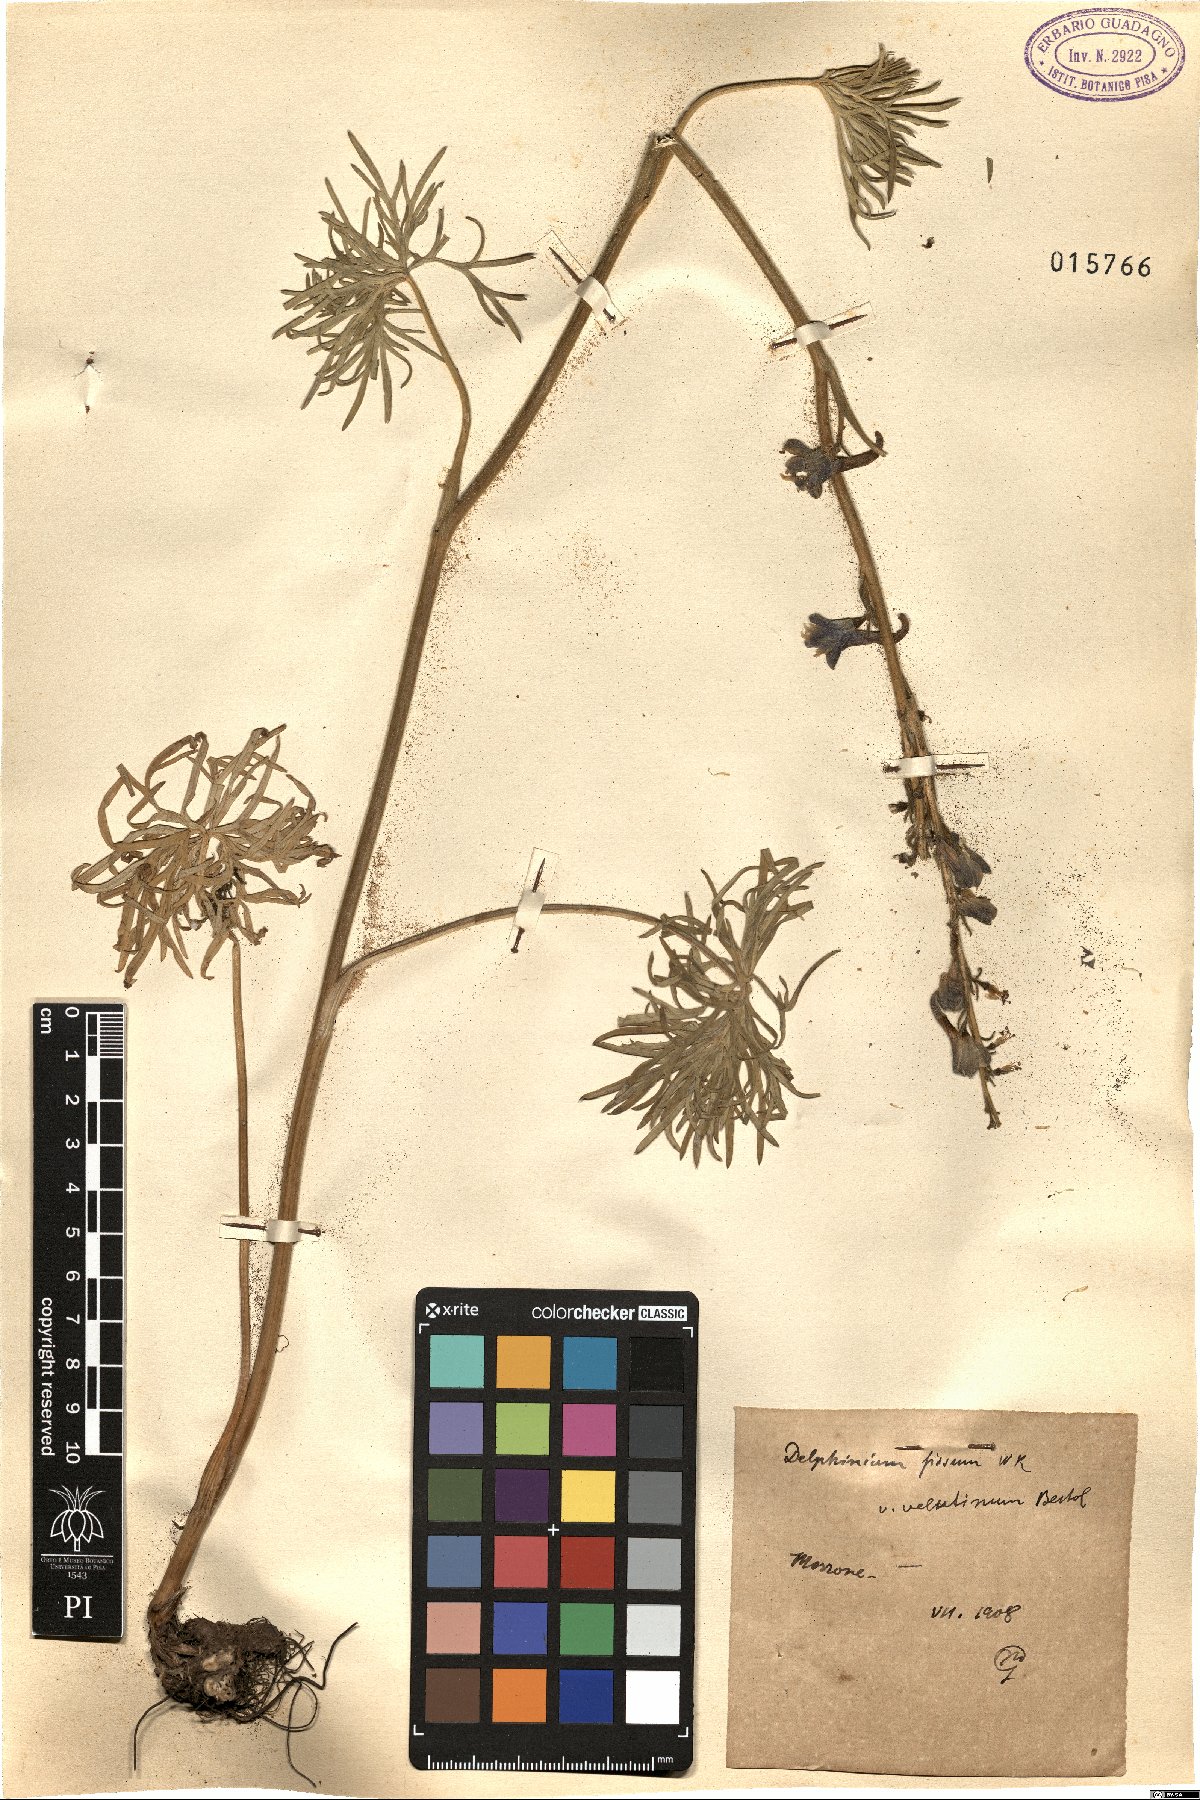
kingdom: Plantae
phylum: Tracheophyta
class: Magnoliopsida
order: Ranunculales
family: Ranunculaceae
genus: Delphinium
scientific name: Delphinium fissum
